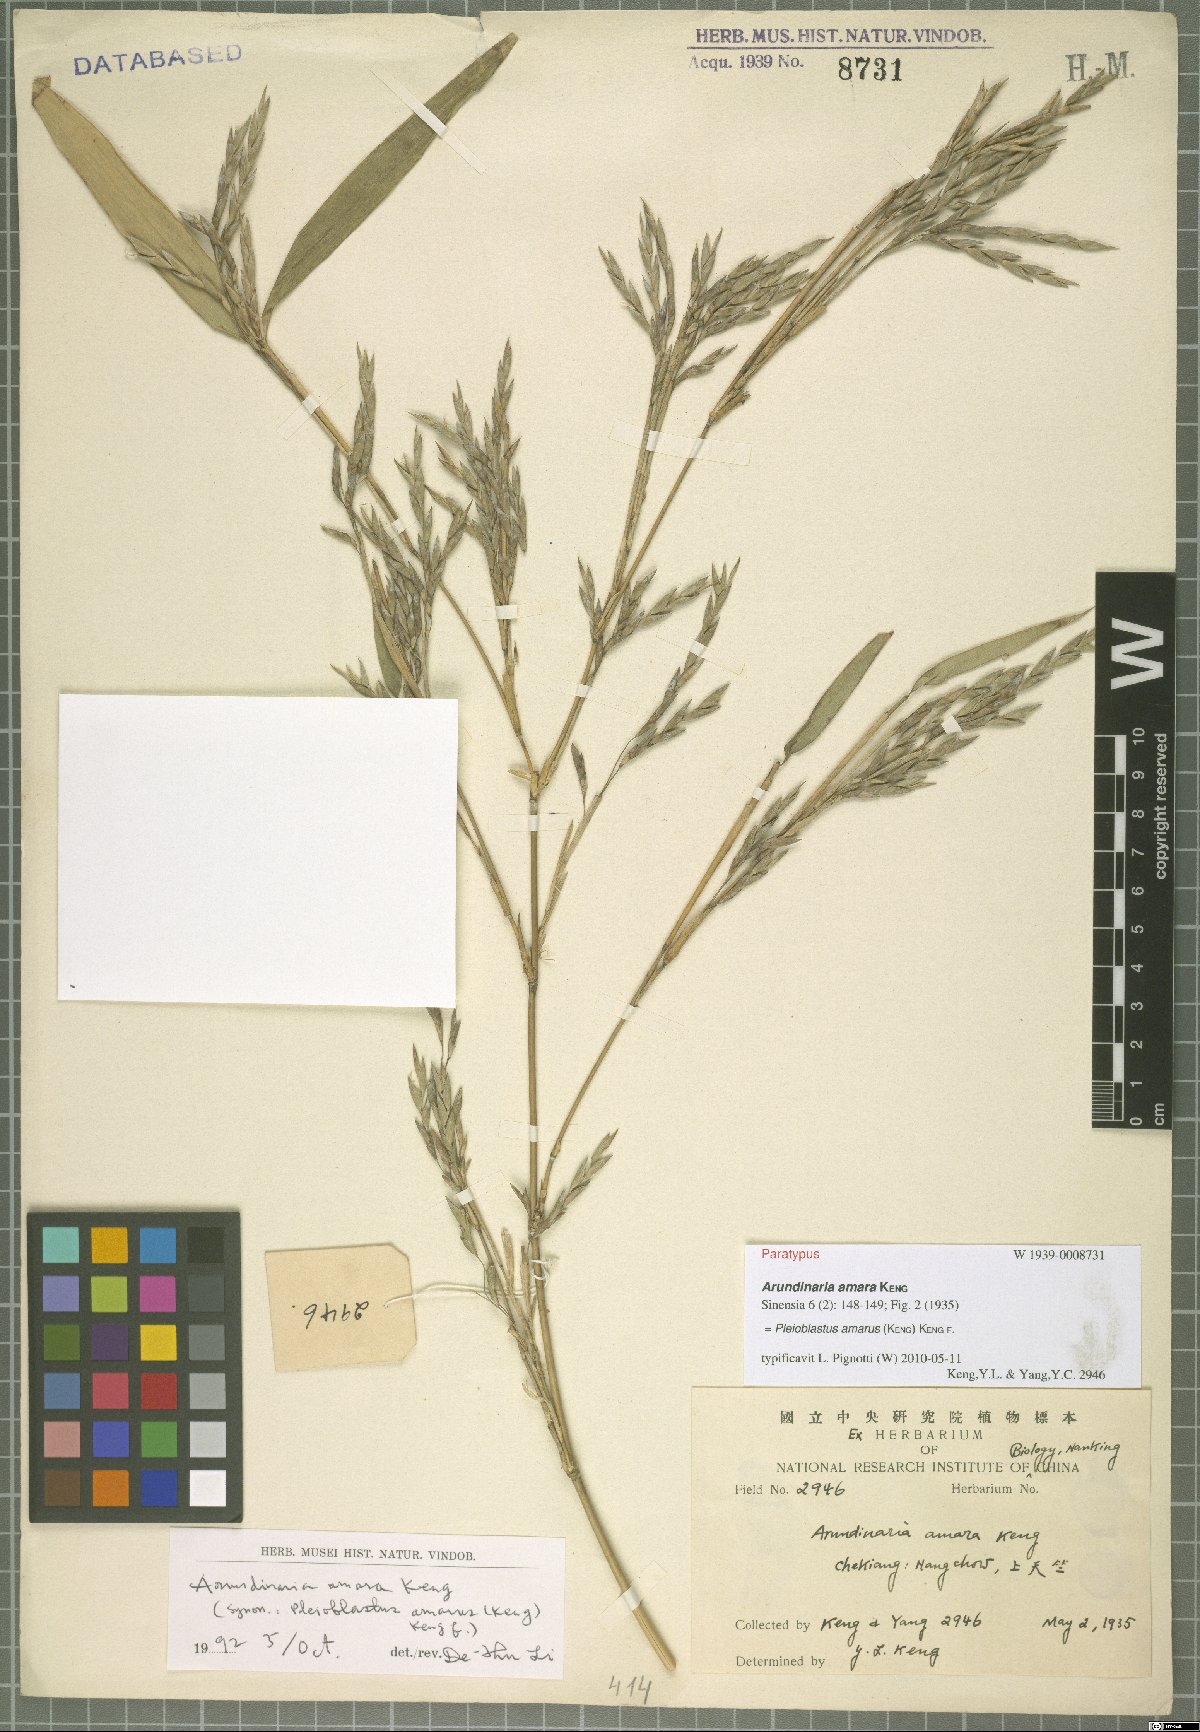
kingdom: Plantae
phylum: Tracheophyta
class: Liliopsida
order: Poales
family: Poaceae
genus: Pleioblastus
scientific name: Pleioblastus amarus
